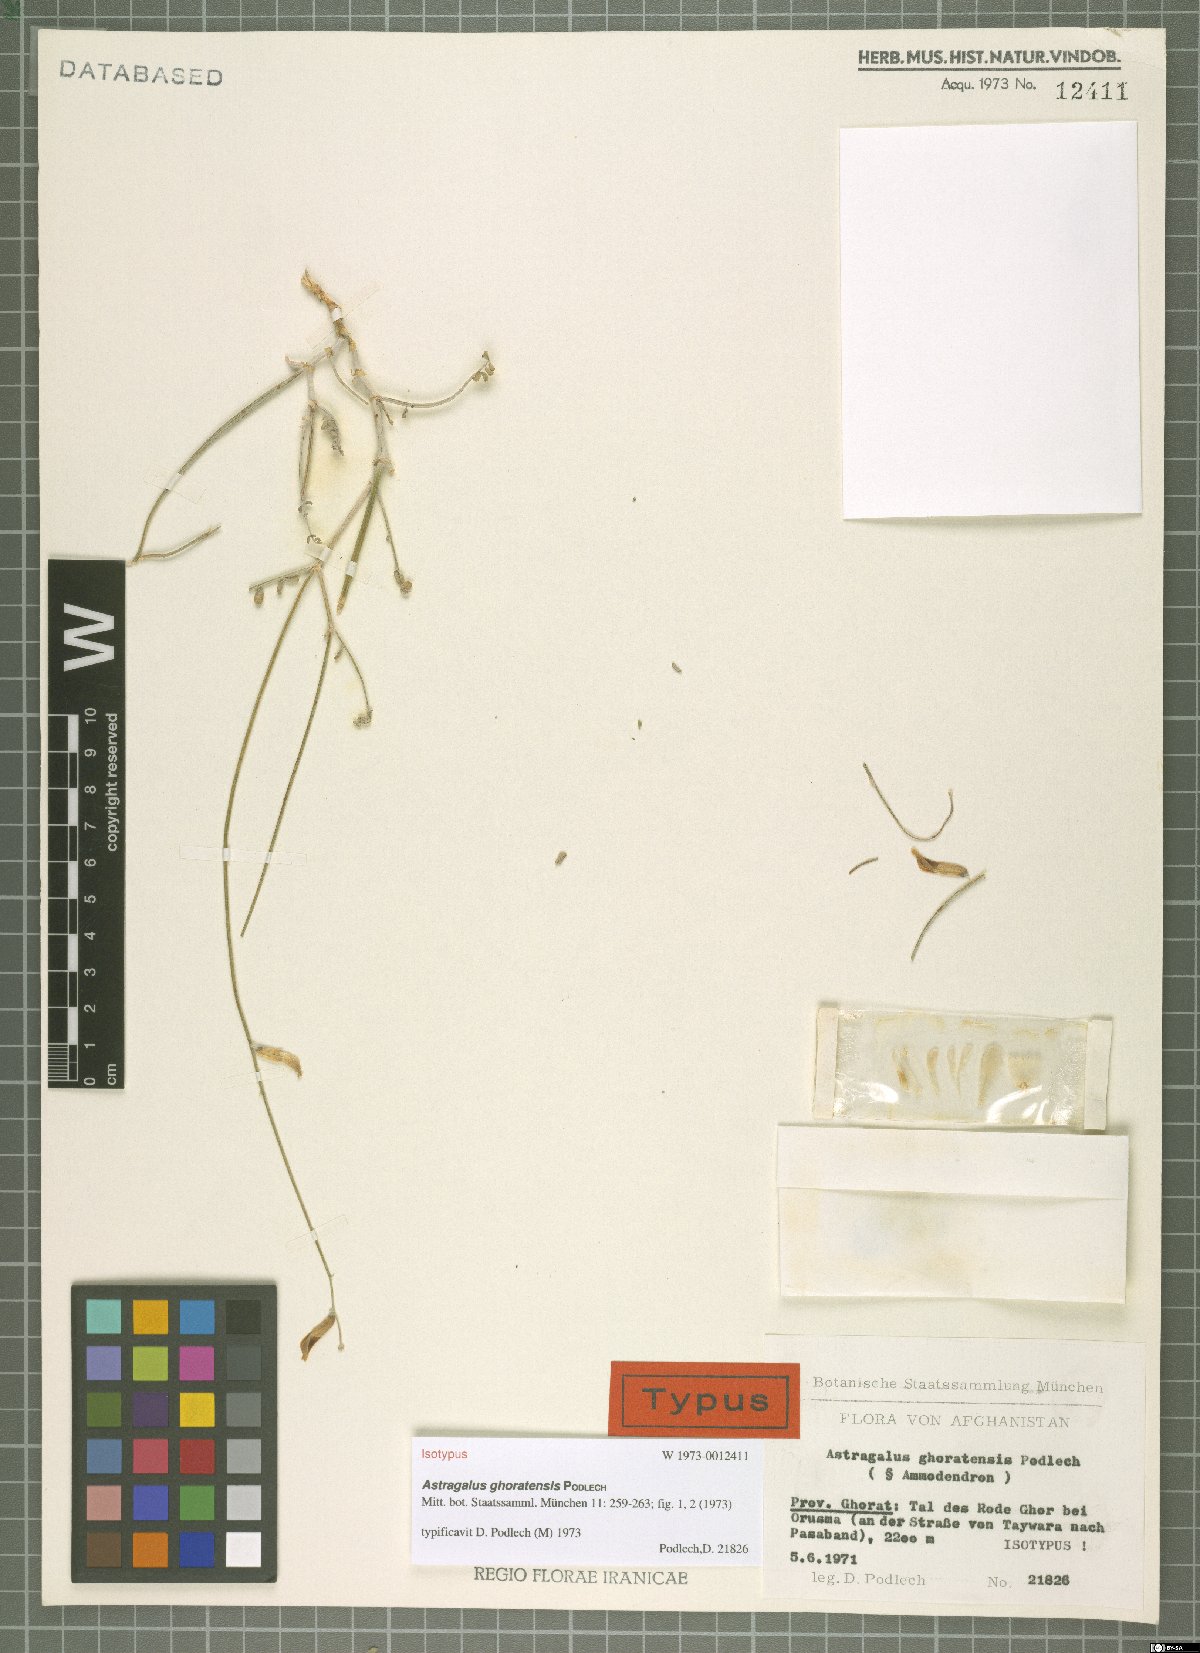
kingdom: Plantae
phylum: Tracheophyta
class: Magnoliopsida
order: Fabales
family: Fabaceae
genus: Astragalus
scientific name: Astragalus ghoratensis
